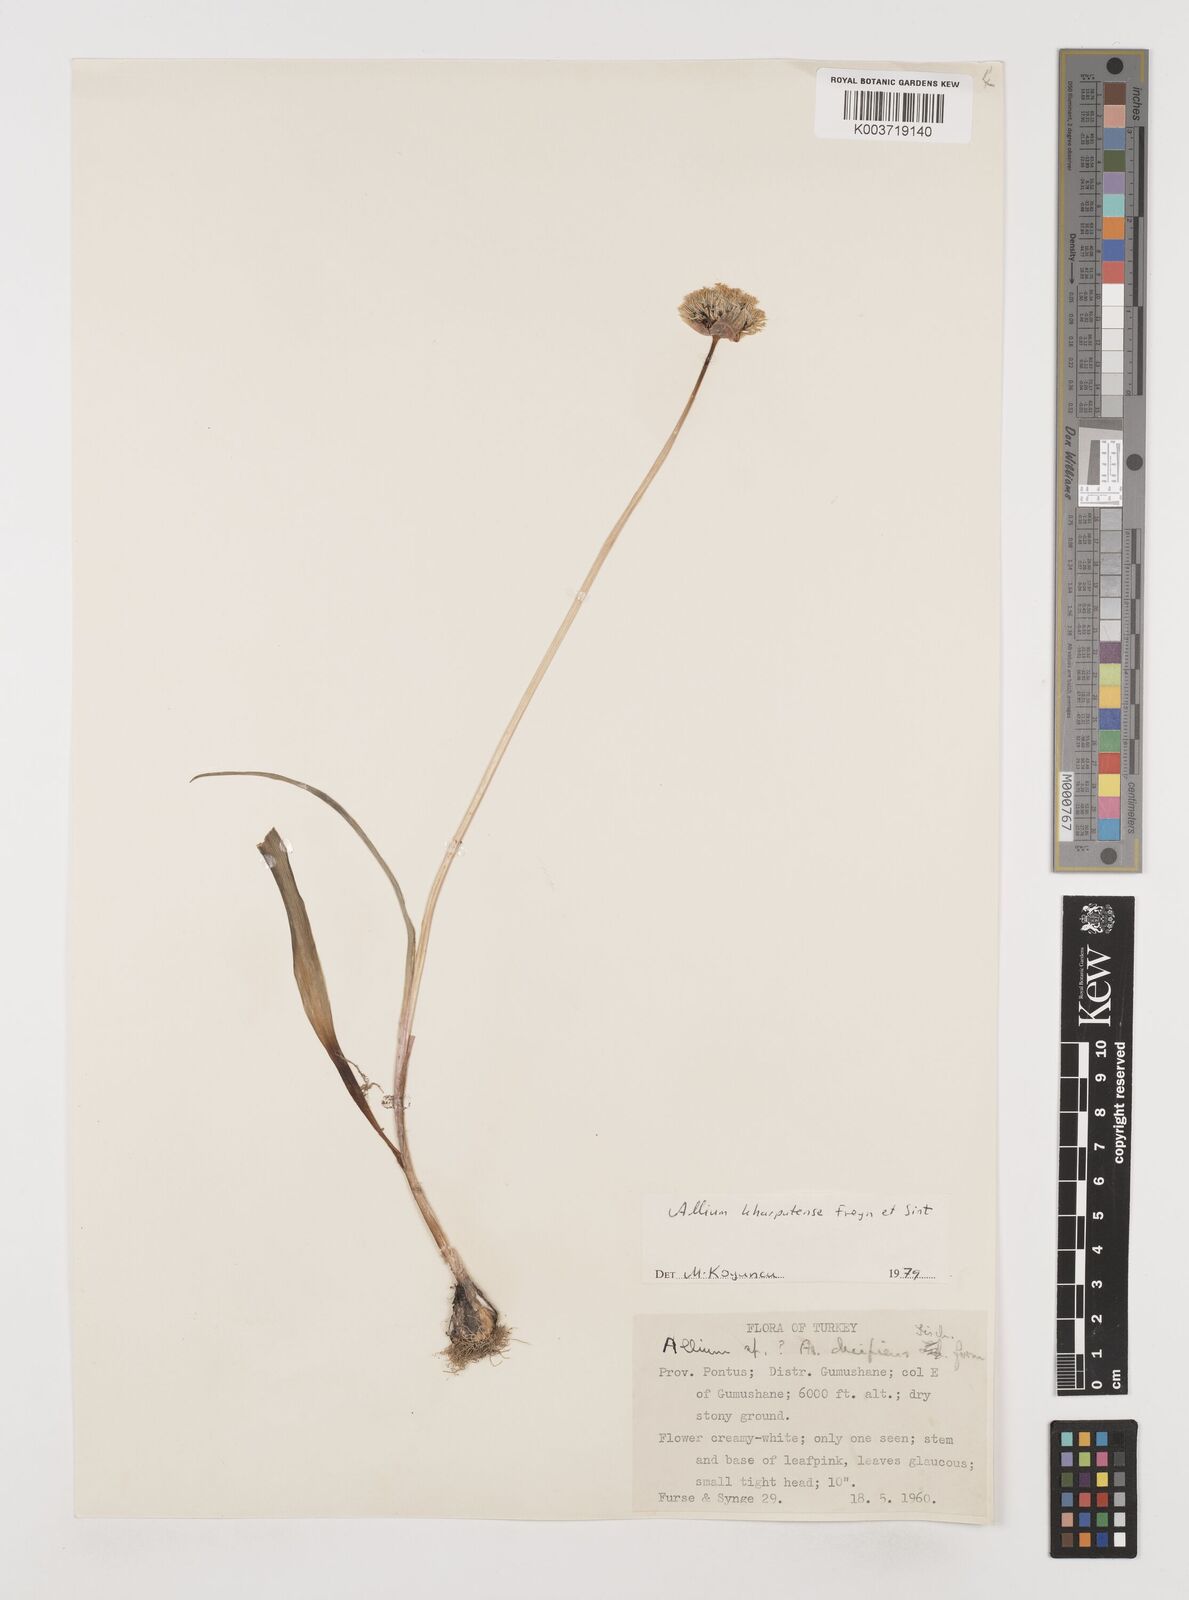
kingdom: Plantae
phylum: Tracheophyta
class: Liliopsida
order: Asparagales
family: Amaryllidaceae
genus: Allium
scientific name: Allium kharputense
